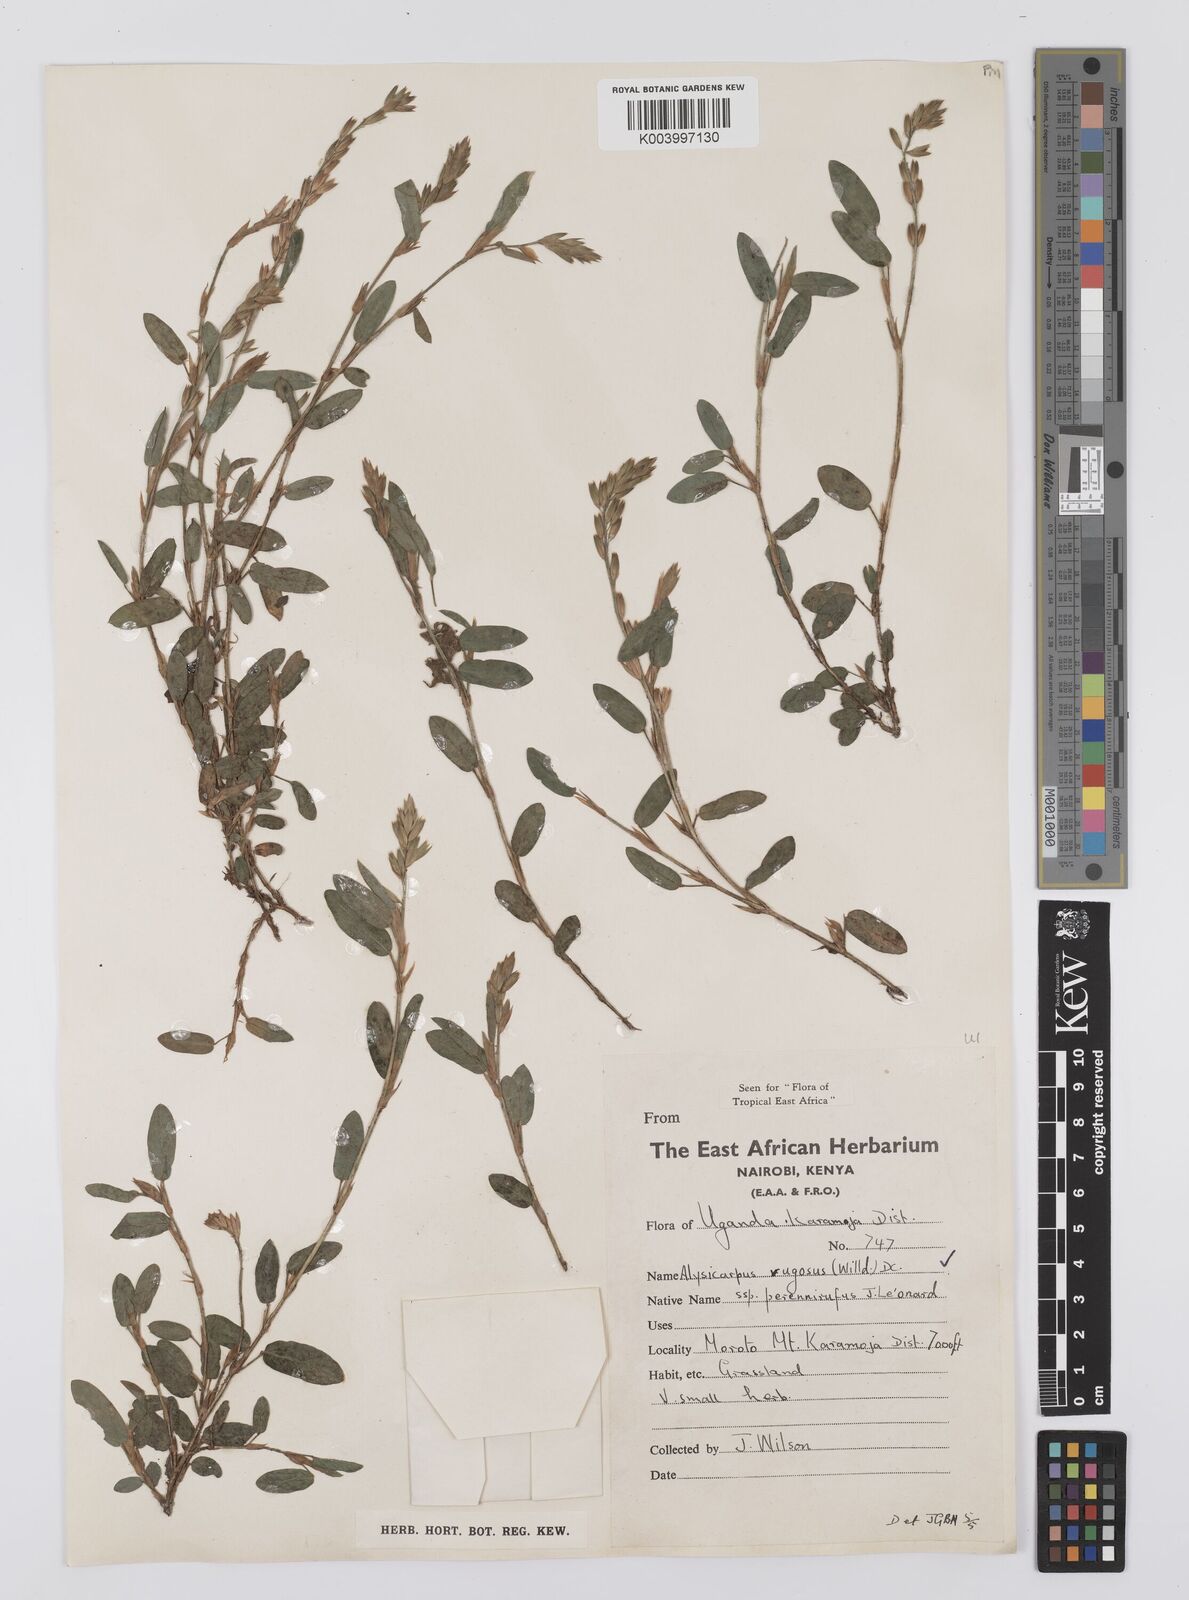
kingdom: Plantae
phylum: Tracheophyta
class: Magnoliopsida
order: Fabales
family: Fabaceae
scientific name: Fabaceae
